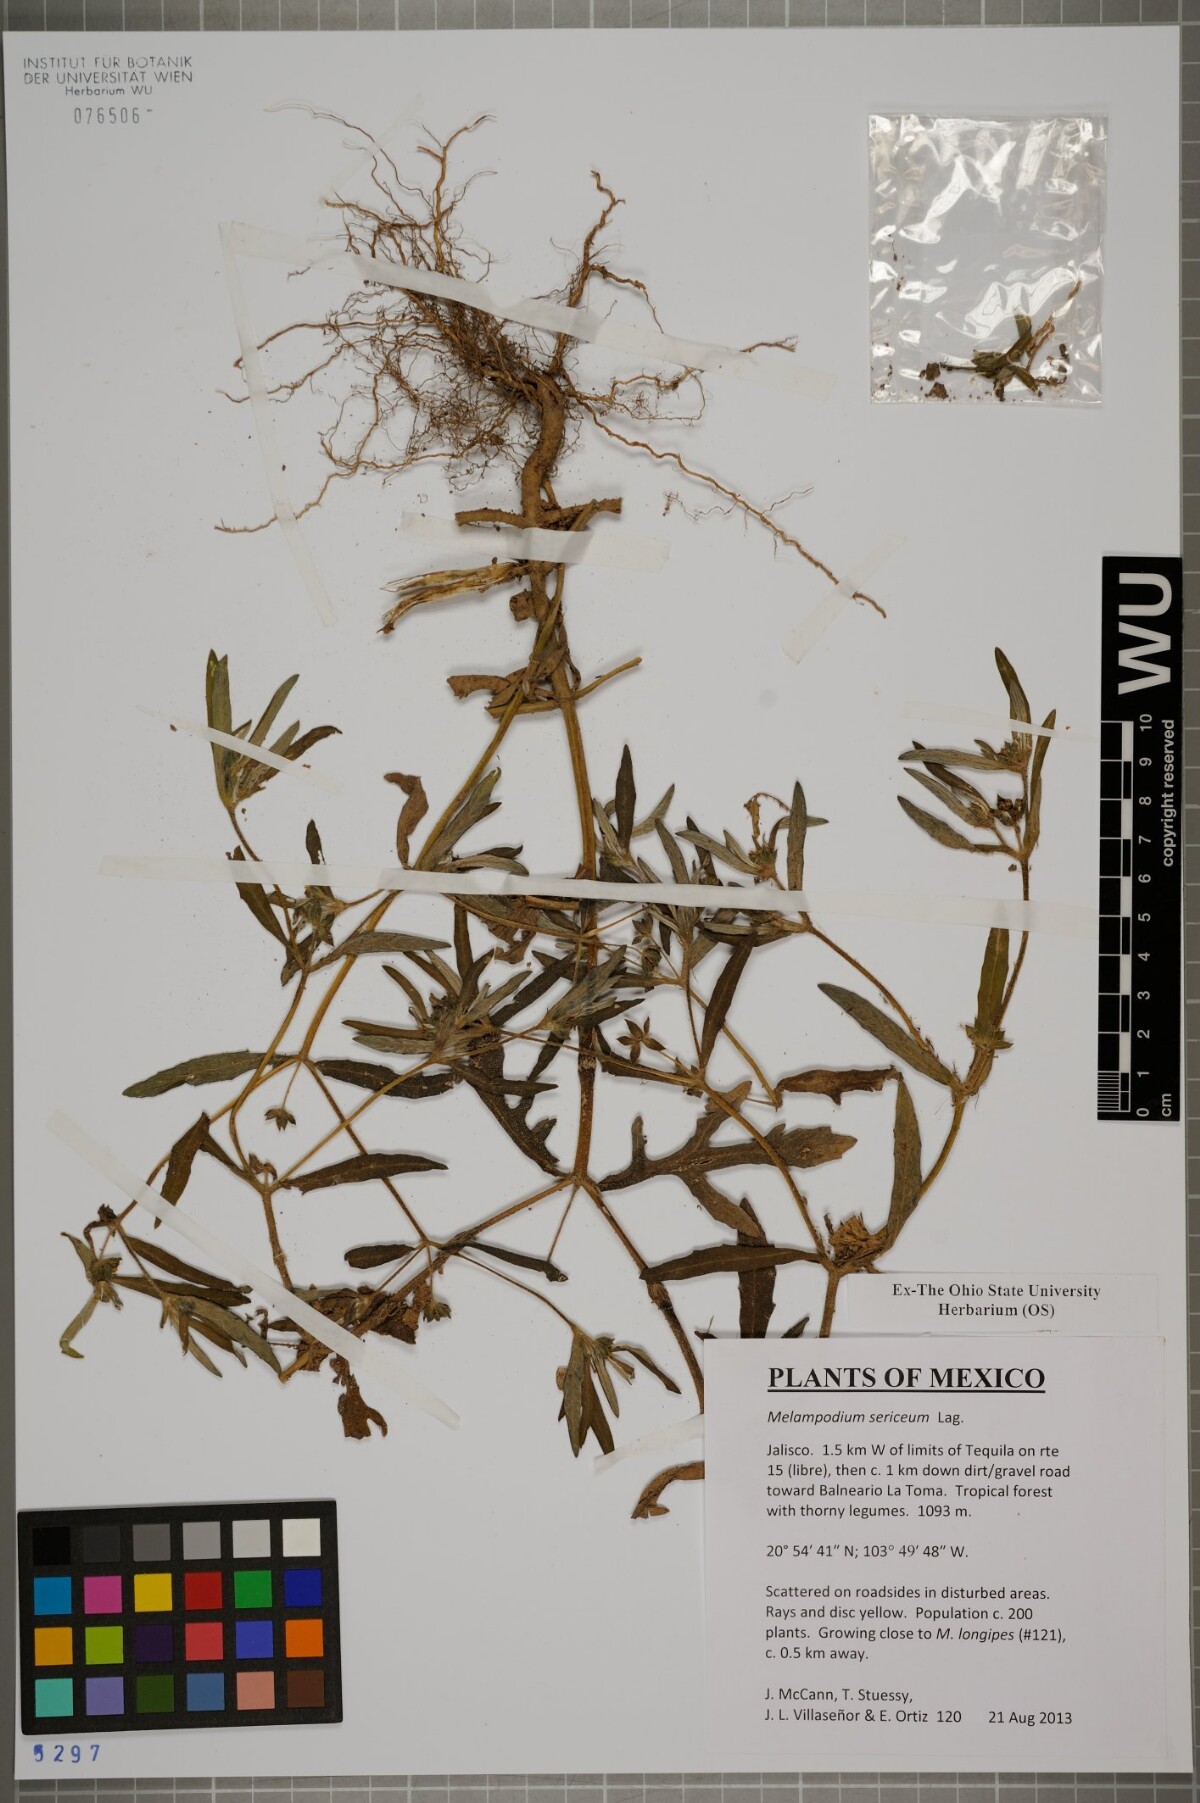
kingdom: Plantae
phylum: Tracheophyta
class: Magnoliopsida
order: Asterales
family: Asteraceae
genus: Melampodium
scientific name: Melampodium sericeum
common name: Rough blackfoot
